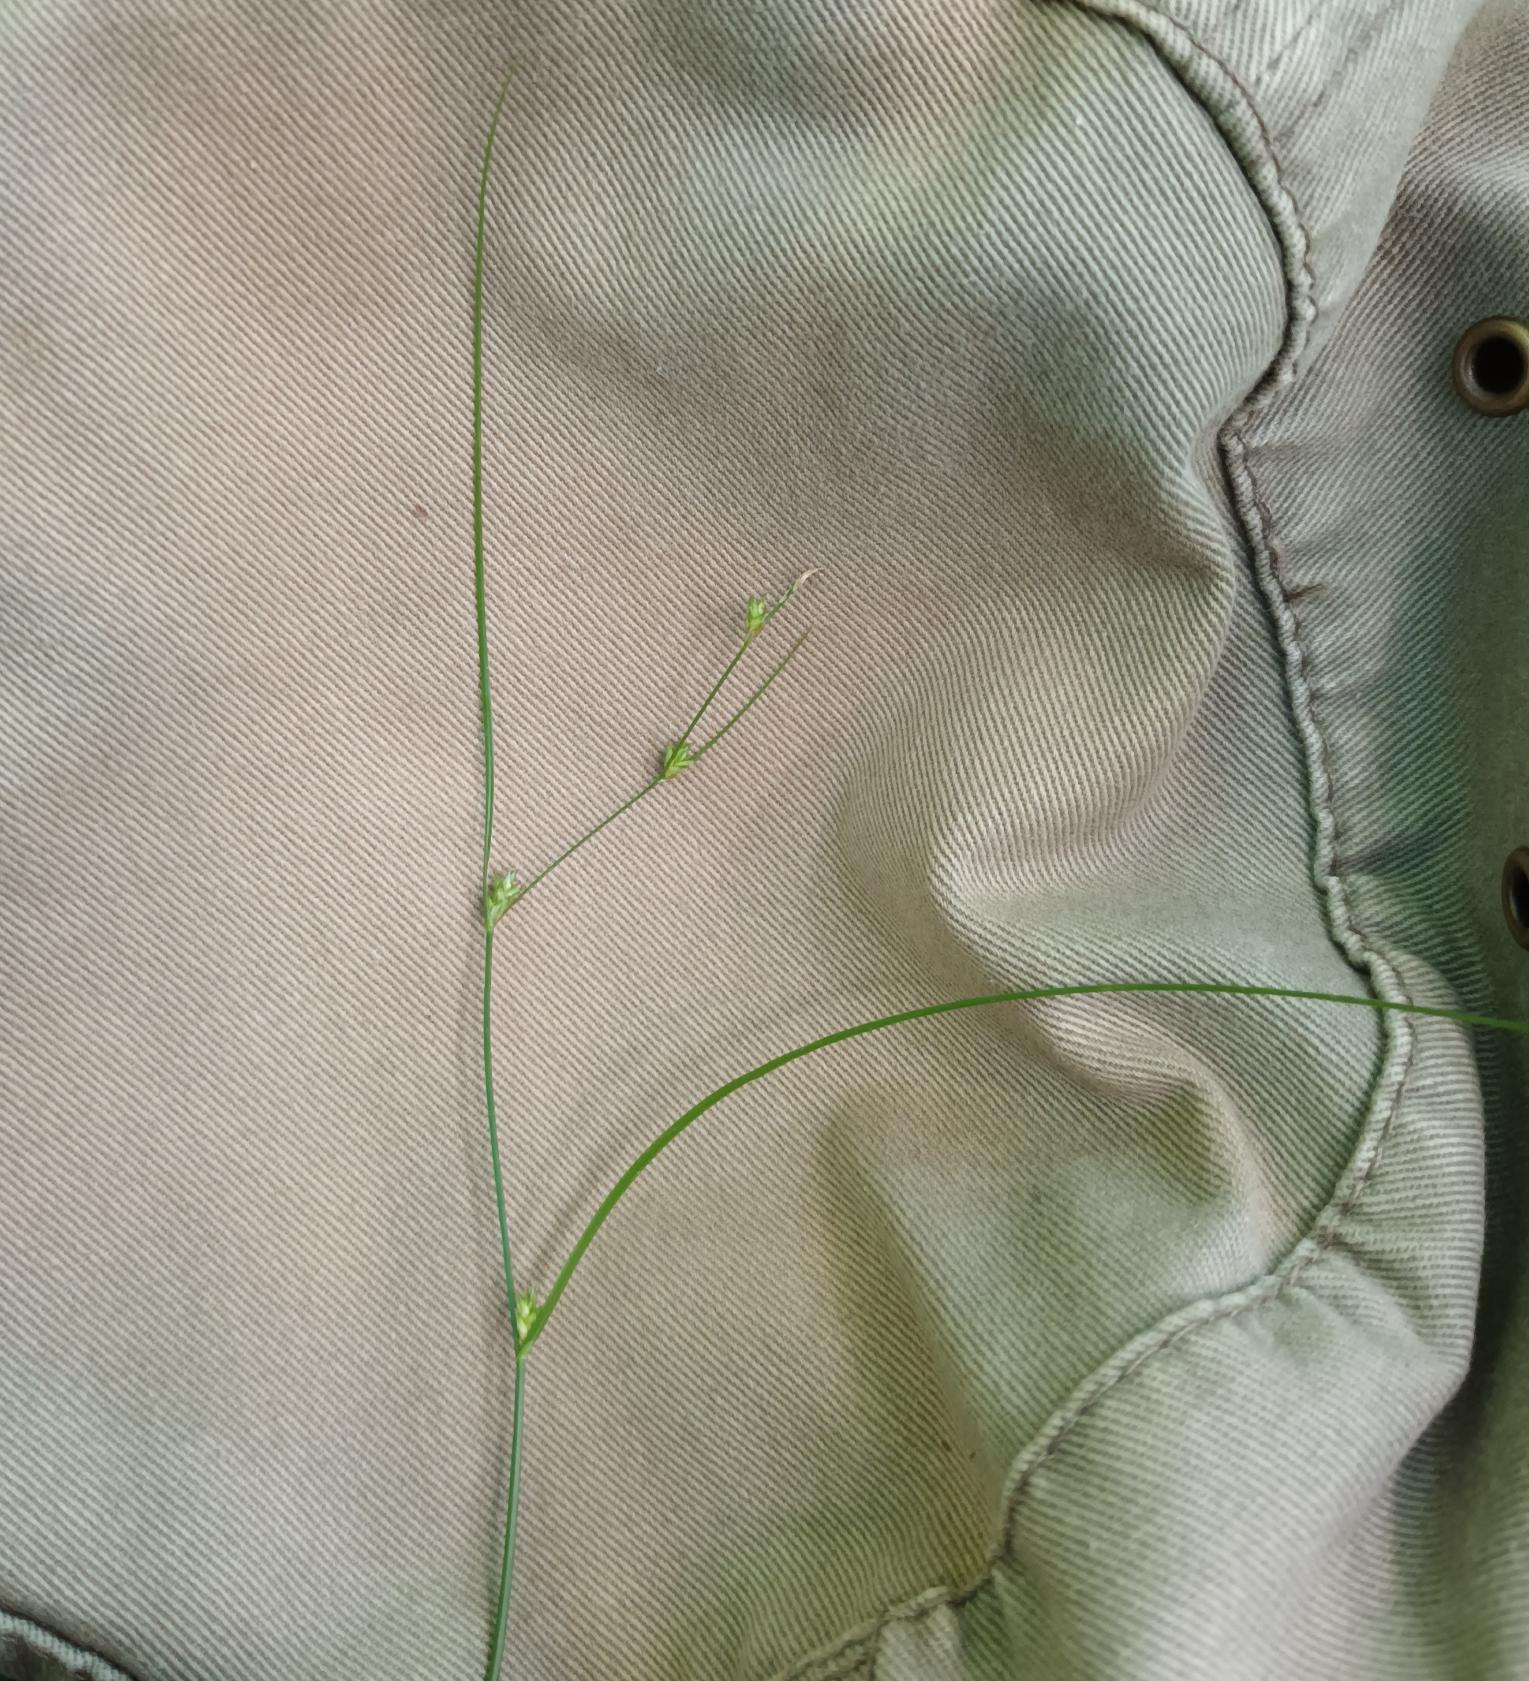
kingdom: Plantae
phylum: Tracheophyta
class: Liliopsida
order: Poales
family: Cyperaceae
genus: Carex
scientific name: Carex remota
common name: Akselblomstret star
